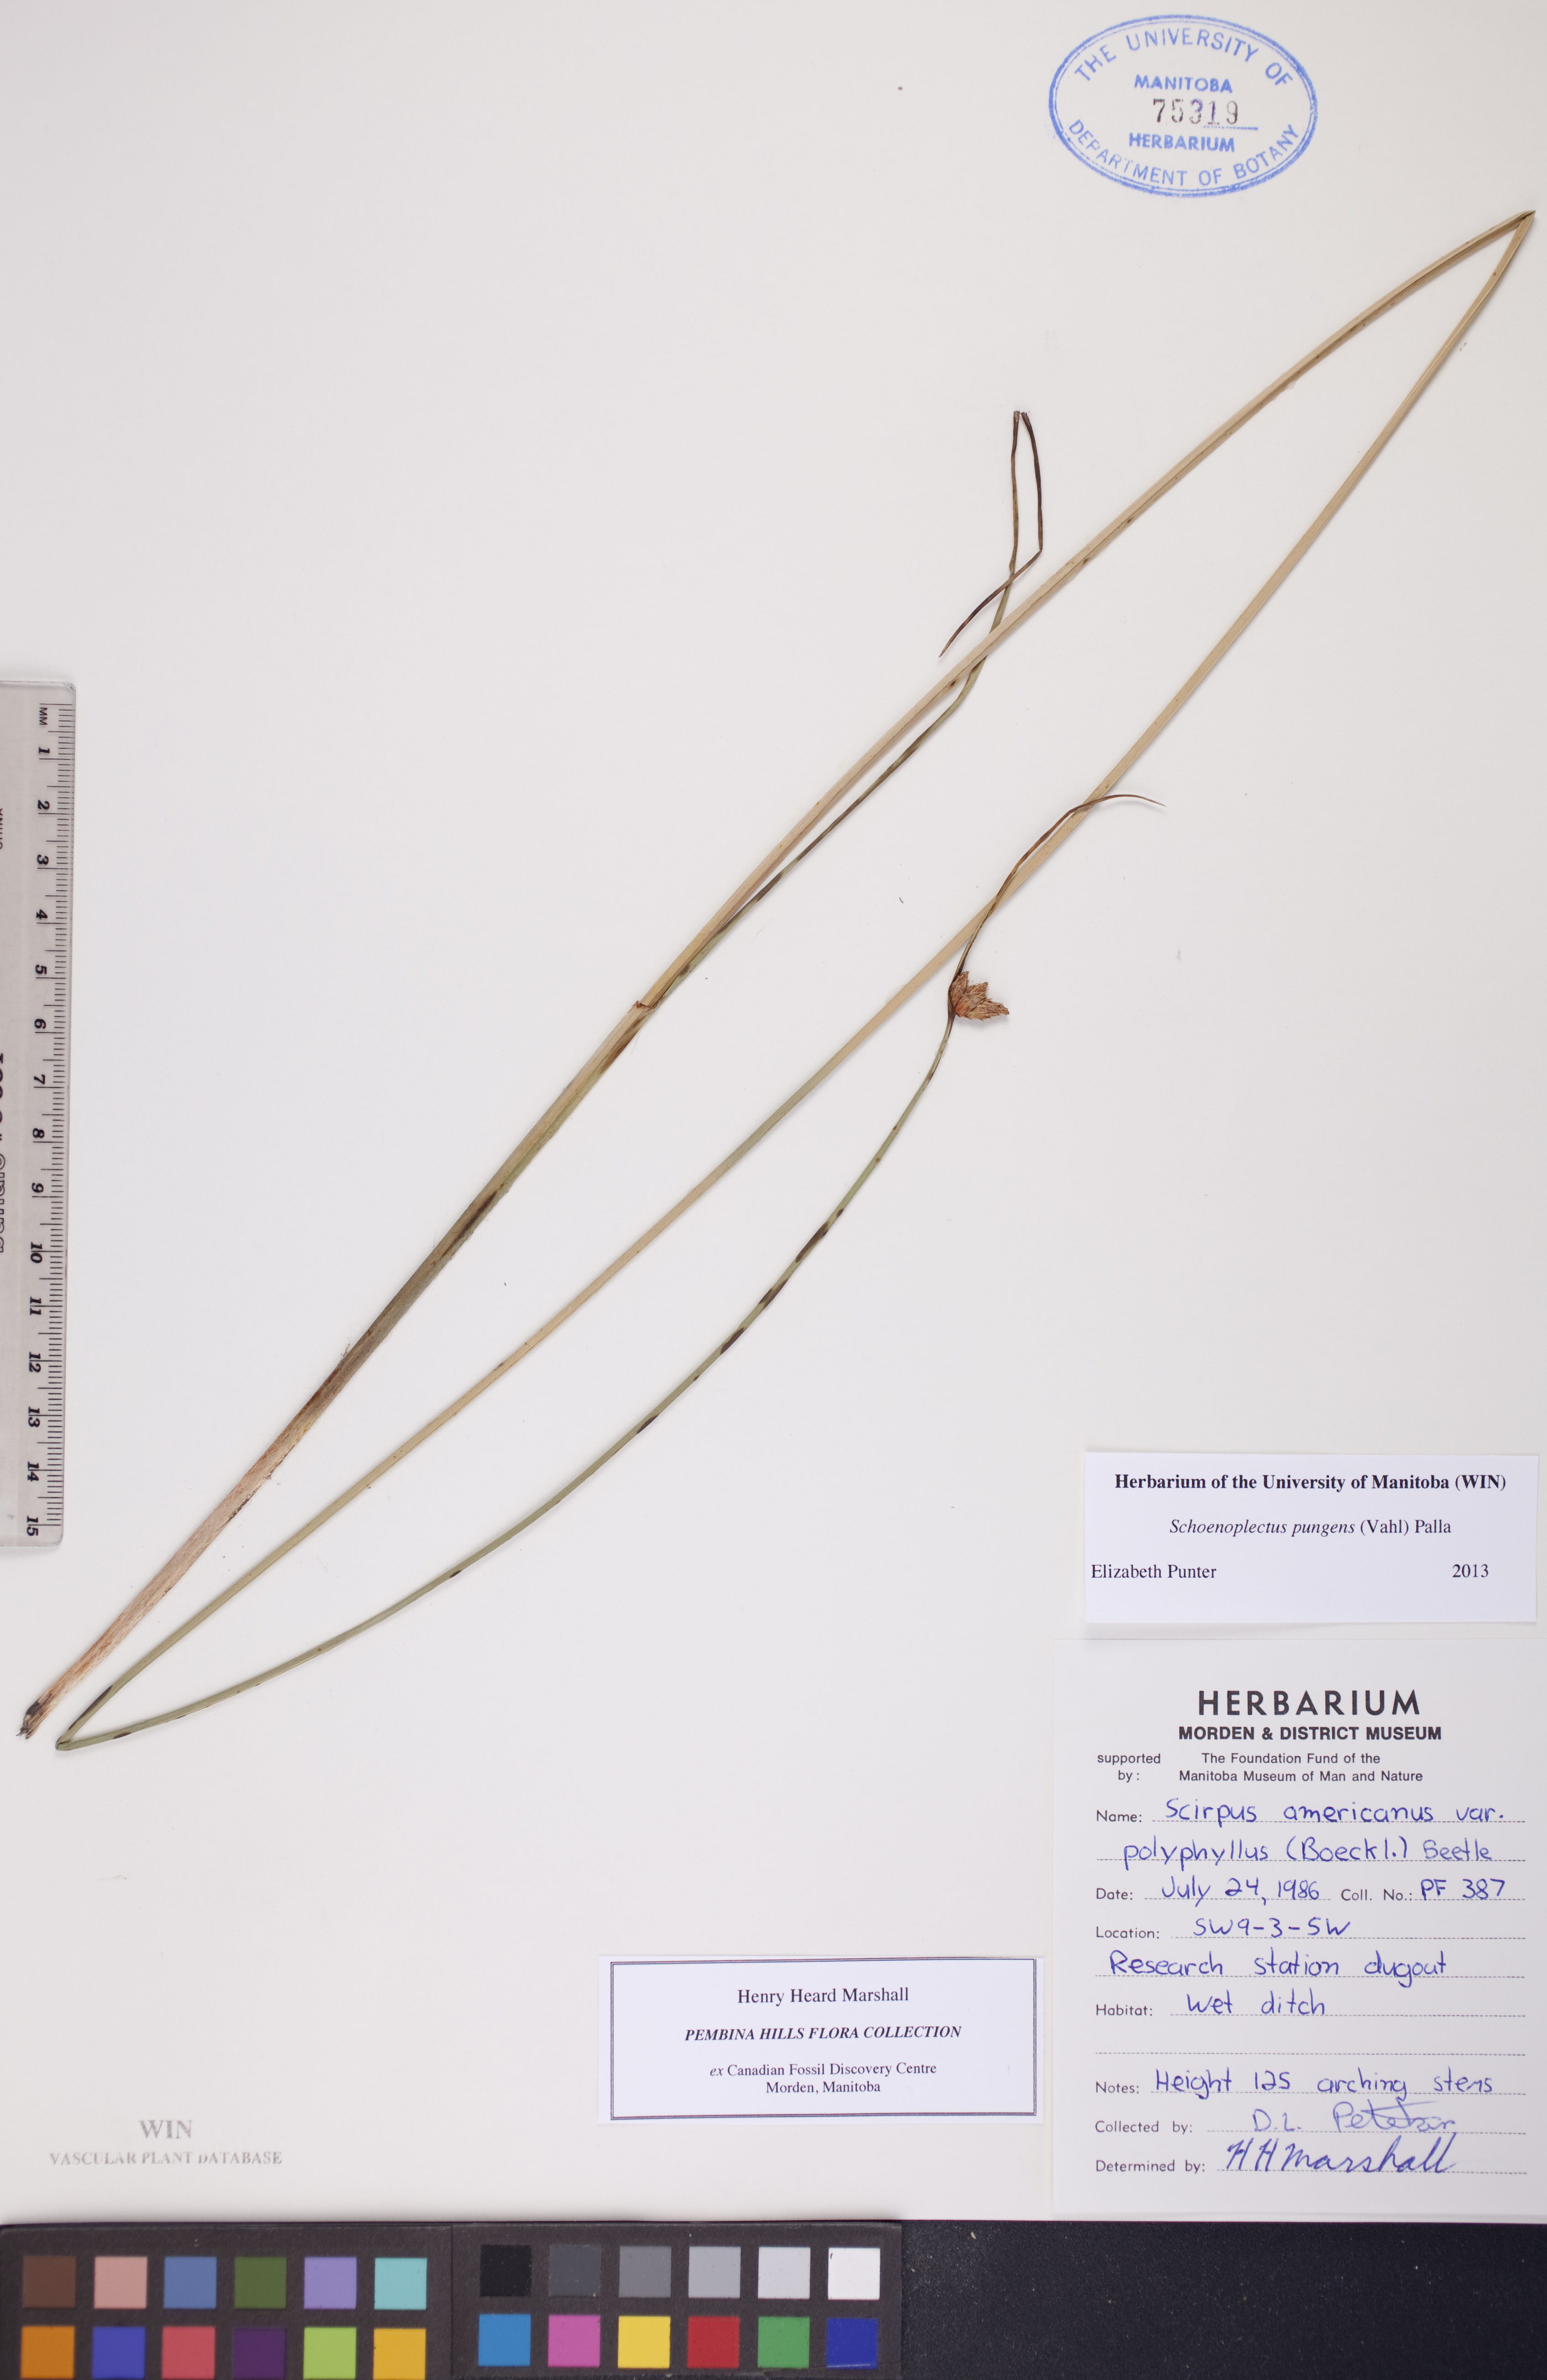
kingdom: Plantae
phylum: Tracheophyta
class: Liliopsida
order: Poales
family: Cyperaceae
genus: Schoenoplectus
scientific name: Schoenoplectus pungens
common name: Sharp club-rush
